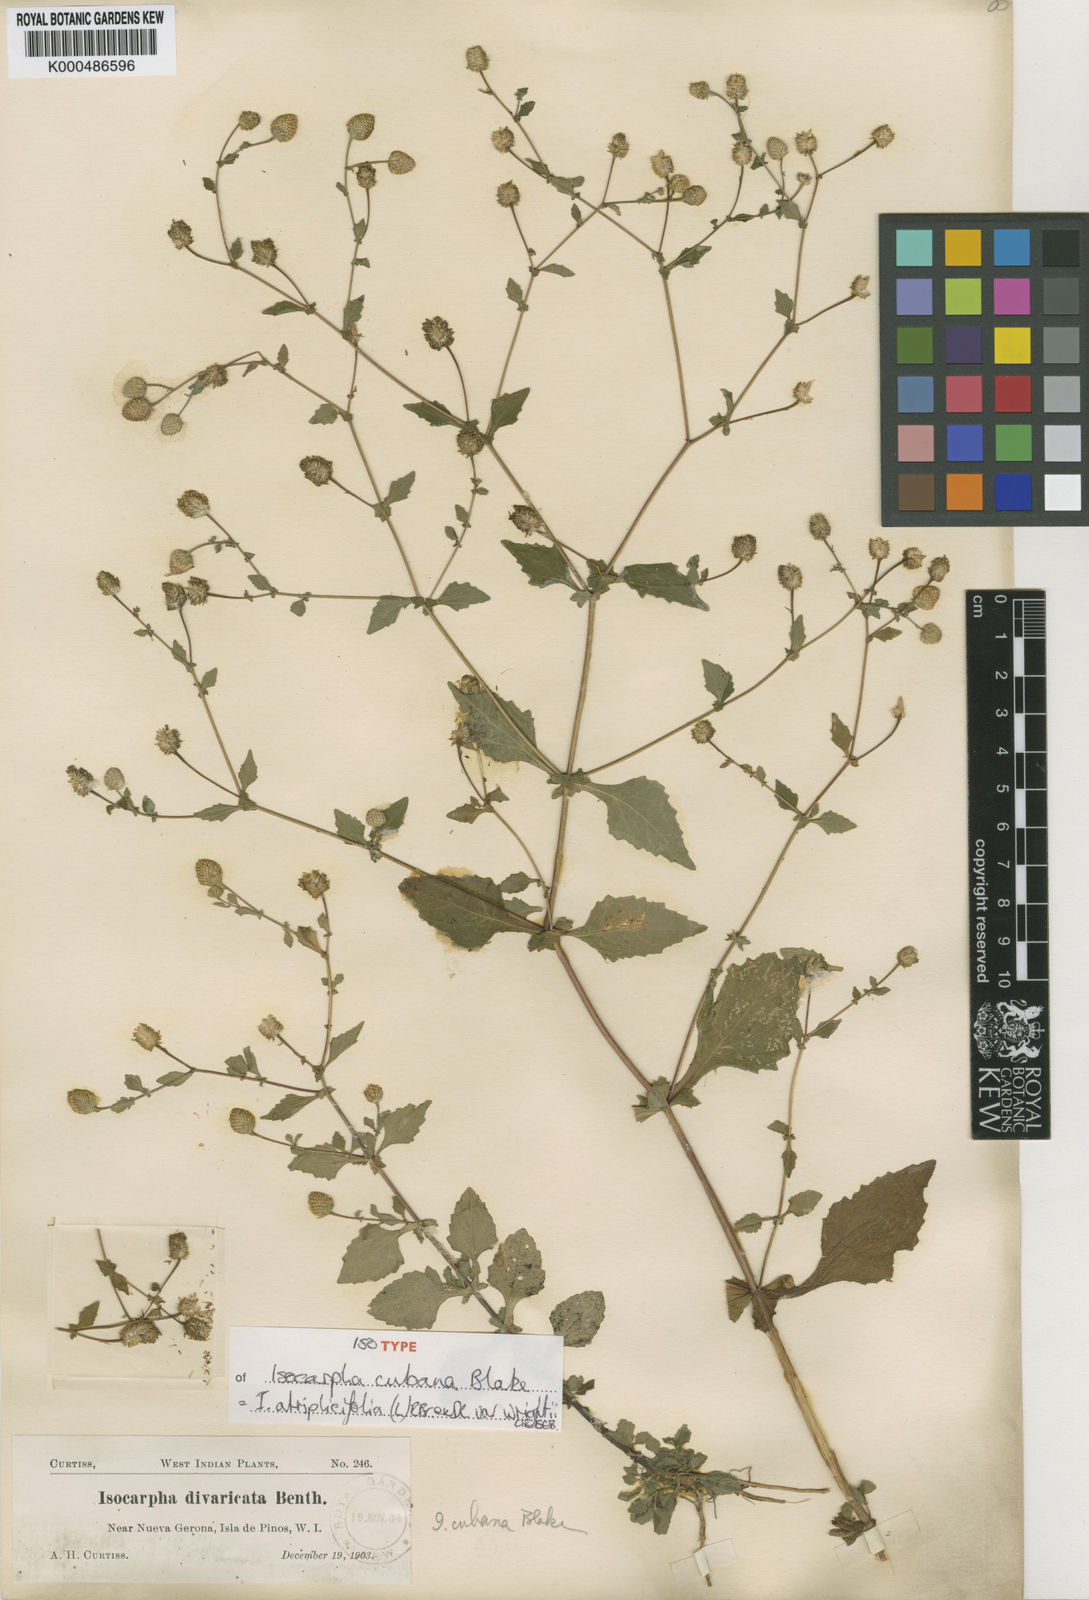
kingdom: Plantae
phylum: Tracheophyta
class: Magnoliopsida
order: Asterales
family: Asteraceae
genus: Isocarpha
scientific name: Isocarpha atriplicifolia
